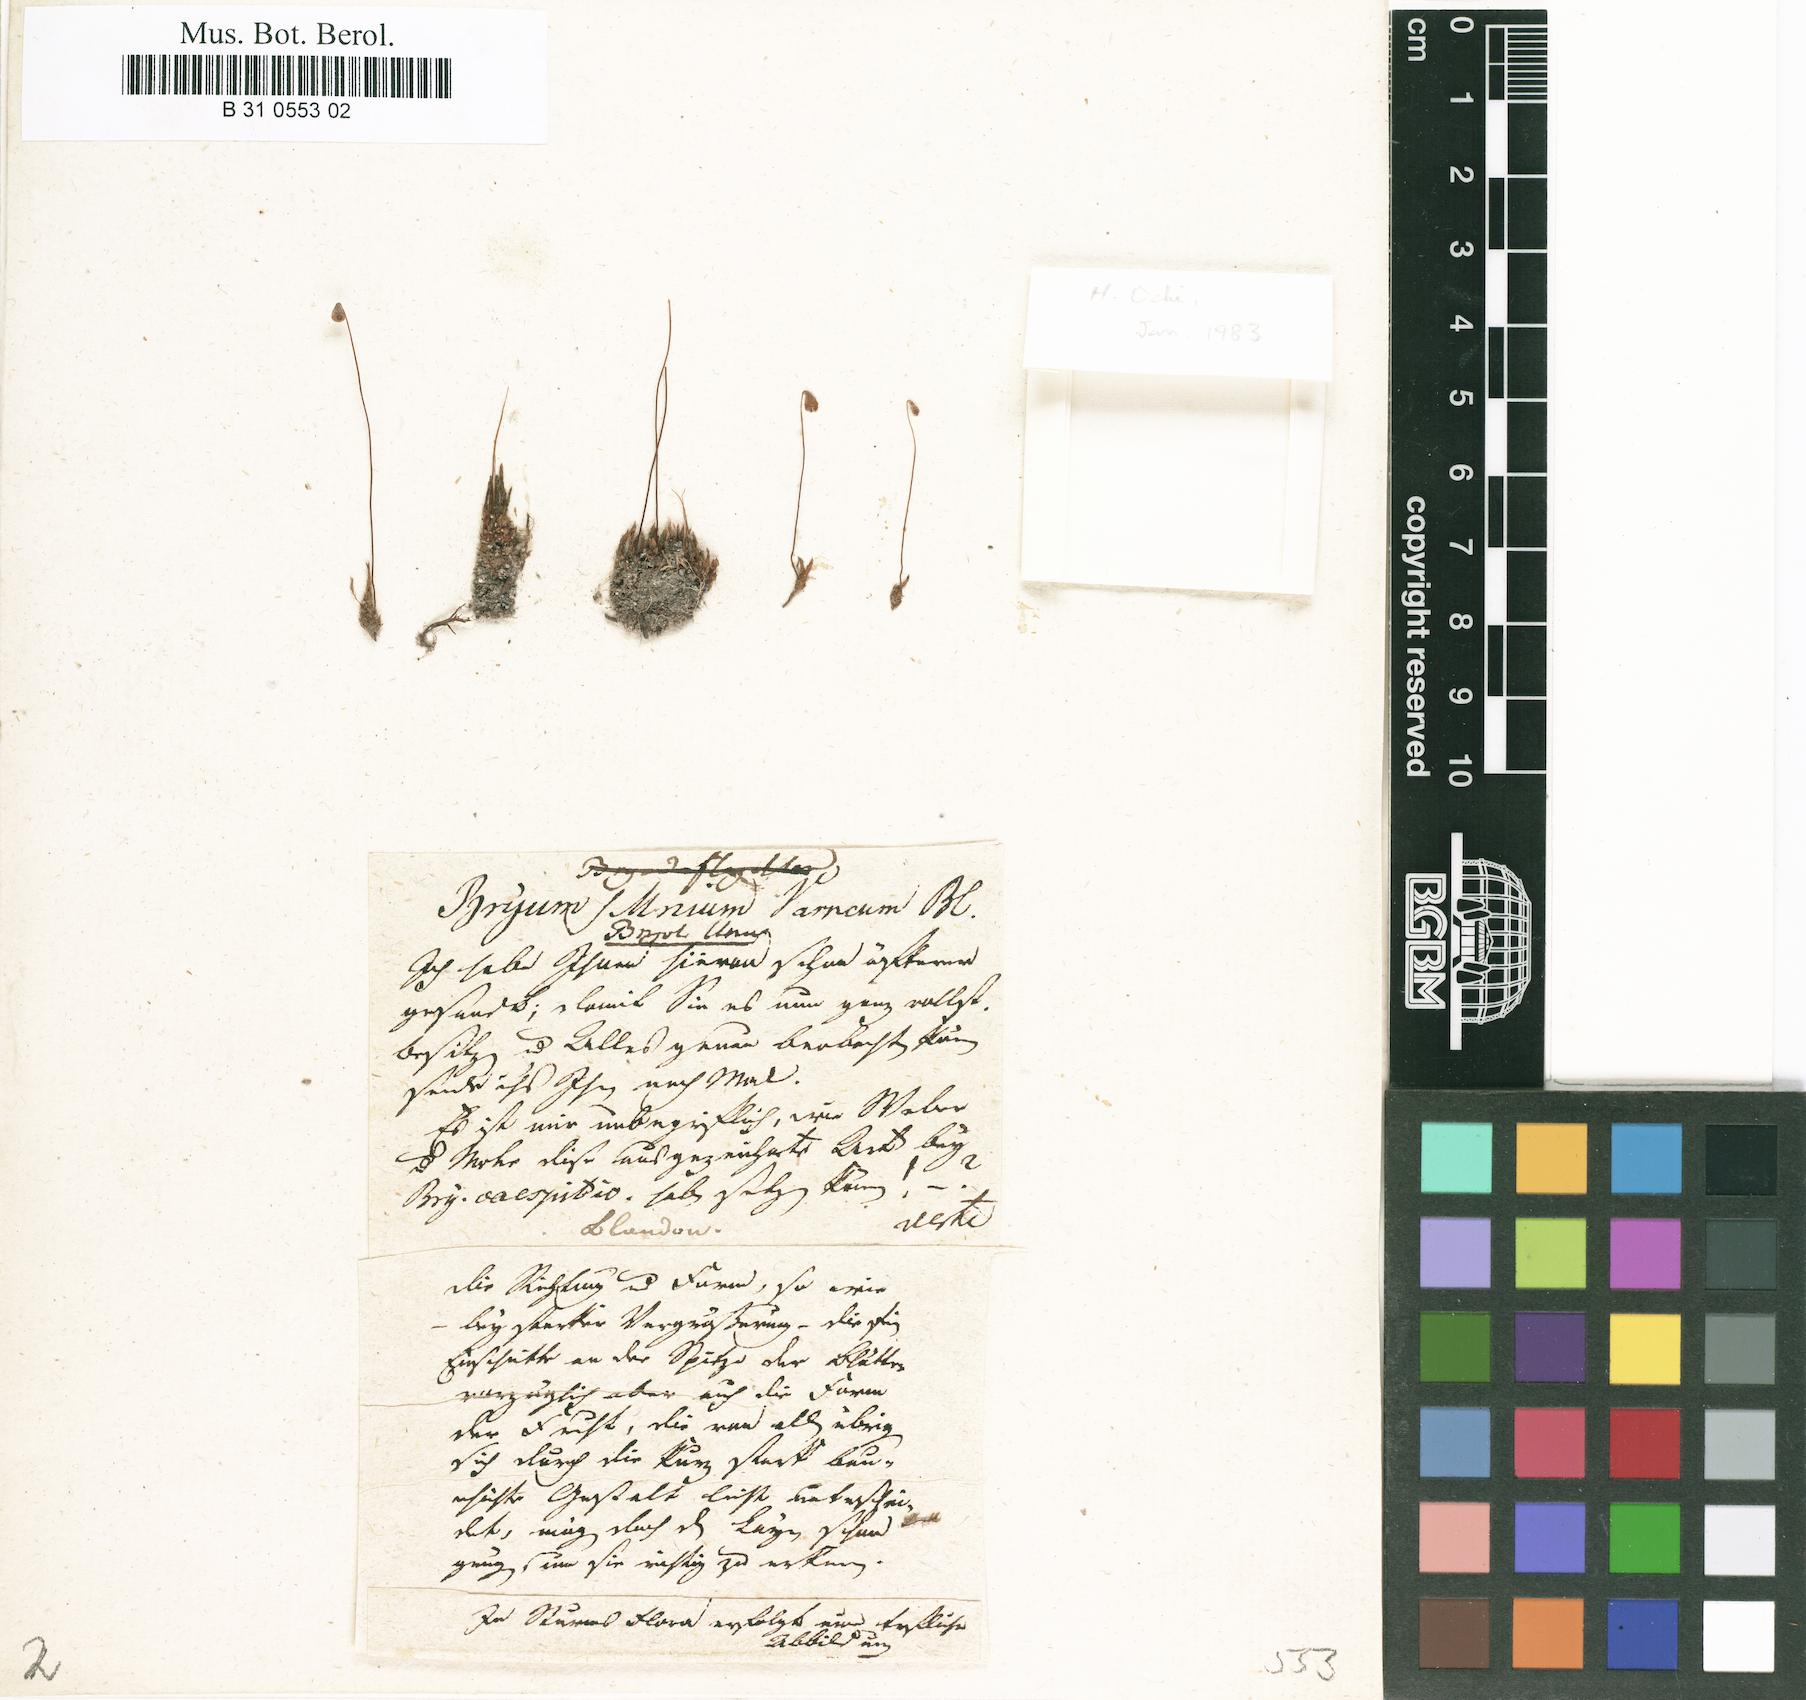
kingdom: Plantae
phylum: Bryophyta
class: Bryopsida
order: Bryales
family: Bryaceae
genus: Ptychostomum
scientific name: Ptychostomum warneum
